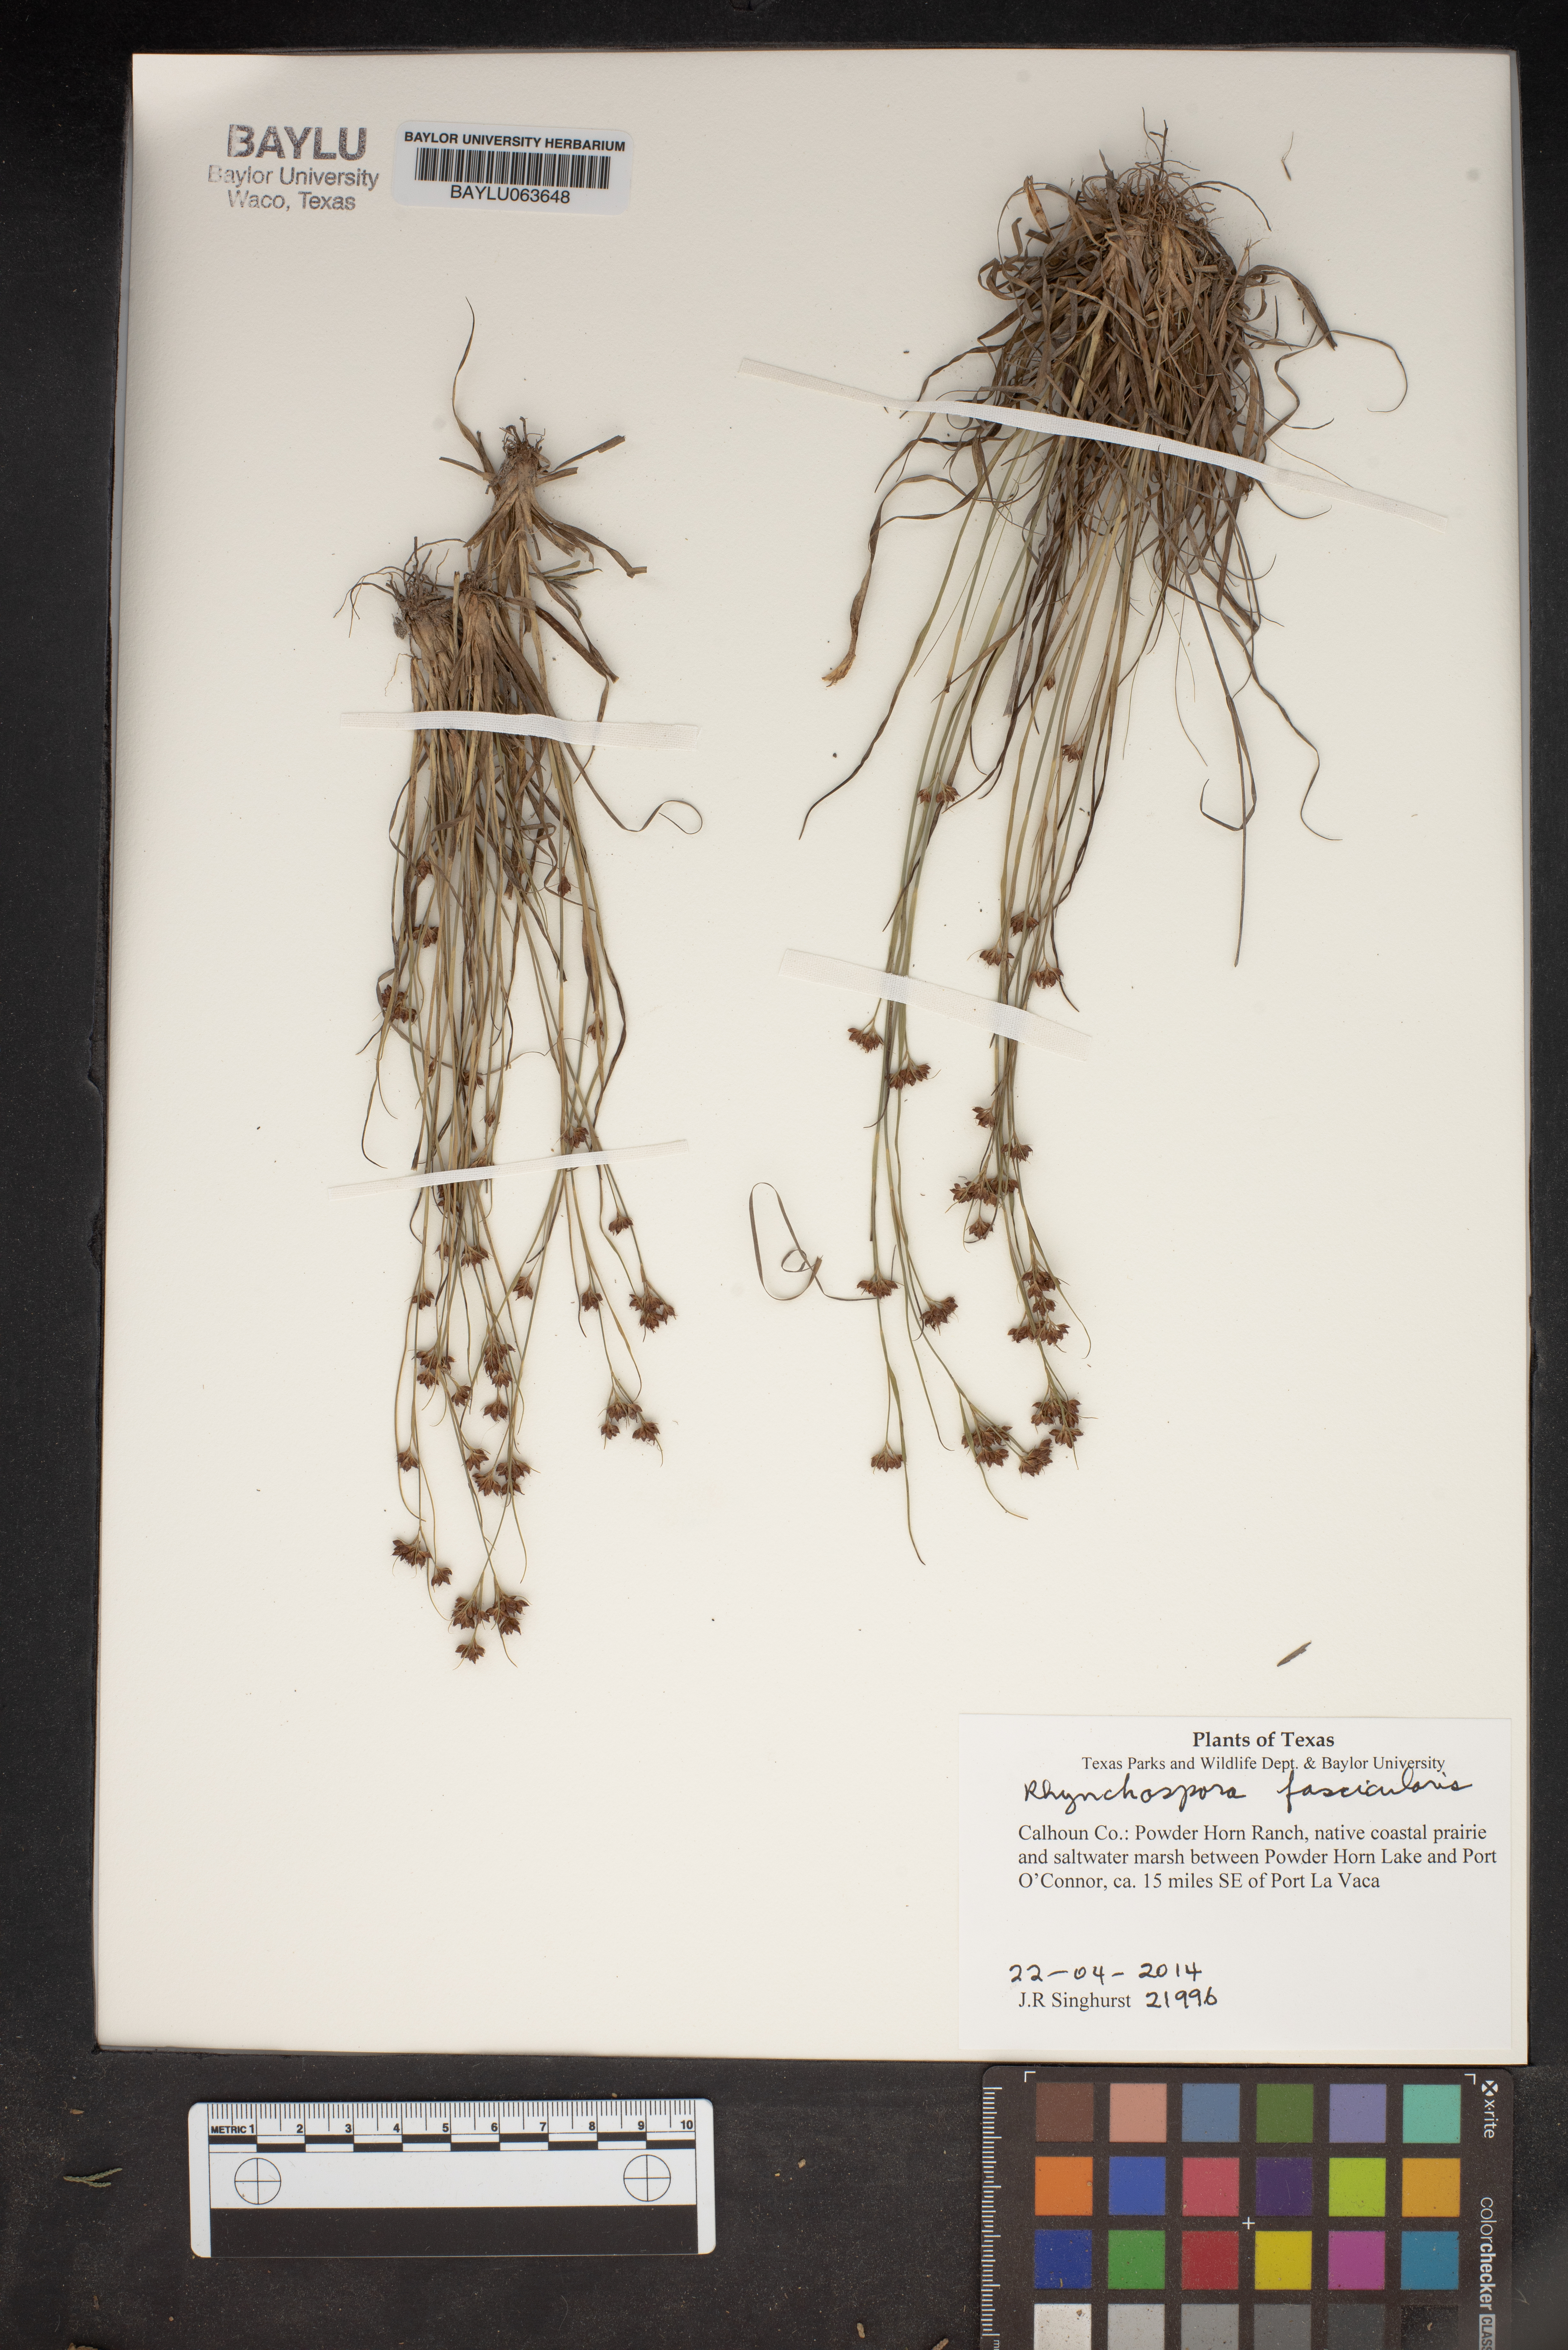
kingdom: Plantae
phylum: Tracheophyta
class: Liliopsida
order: Poales
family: Cyperaceae
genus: Rhynchospora
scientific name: Rhynchospora fascicularis
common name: Fascicled beak sedge
